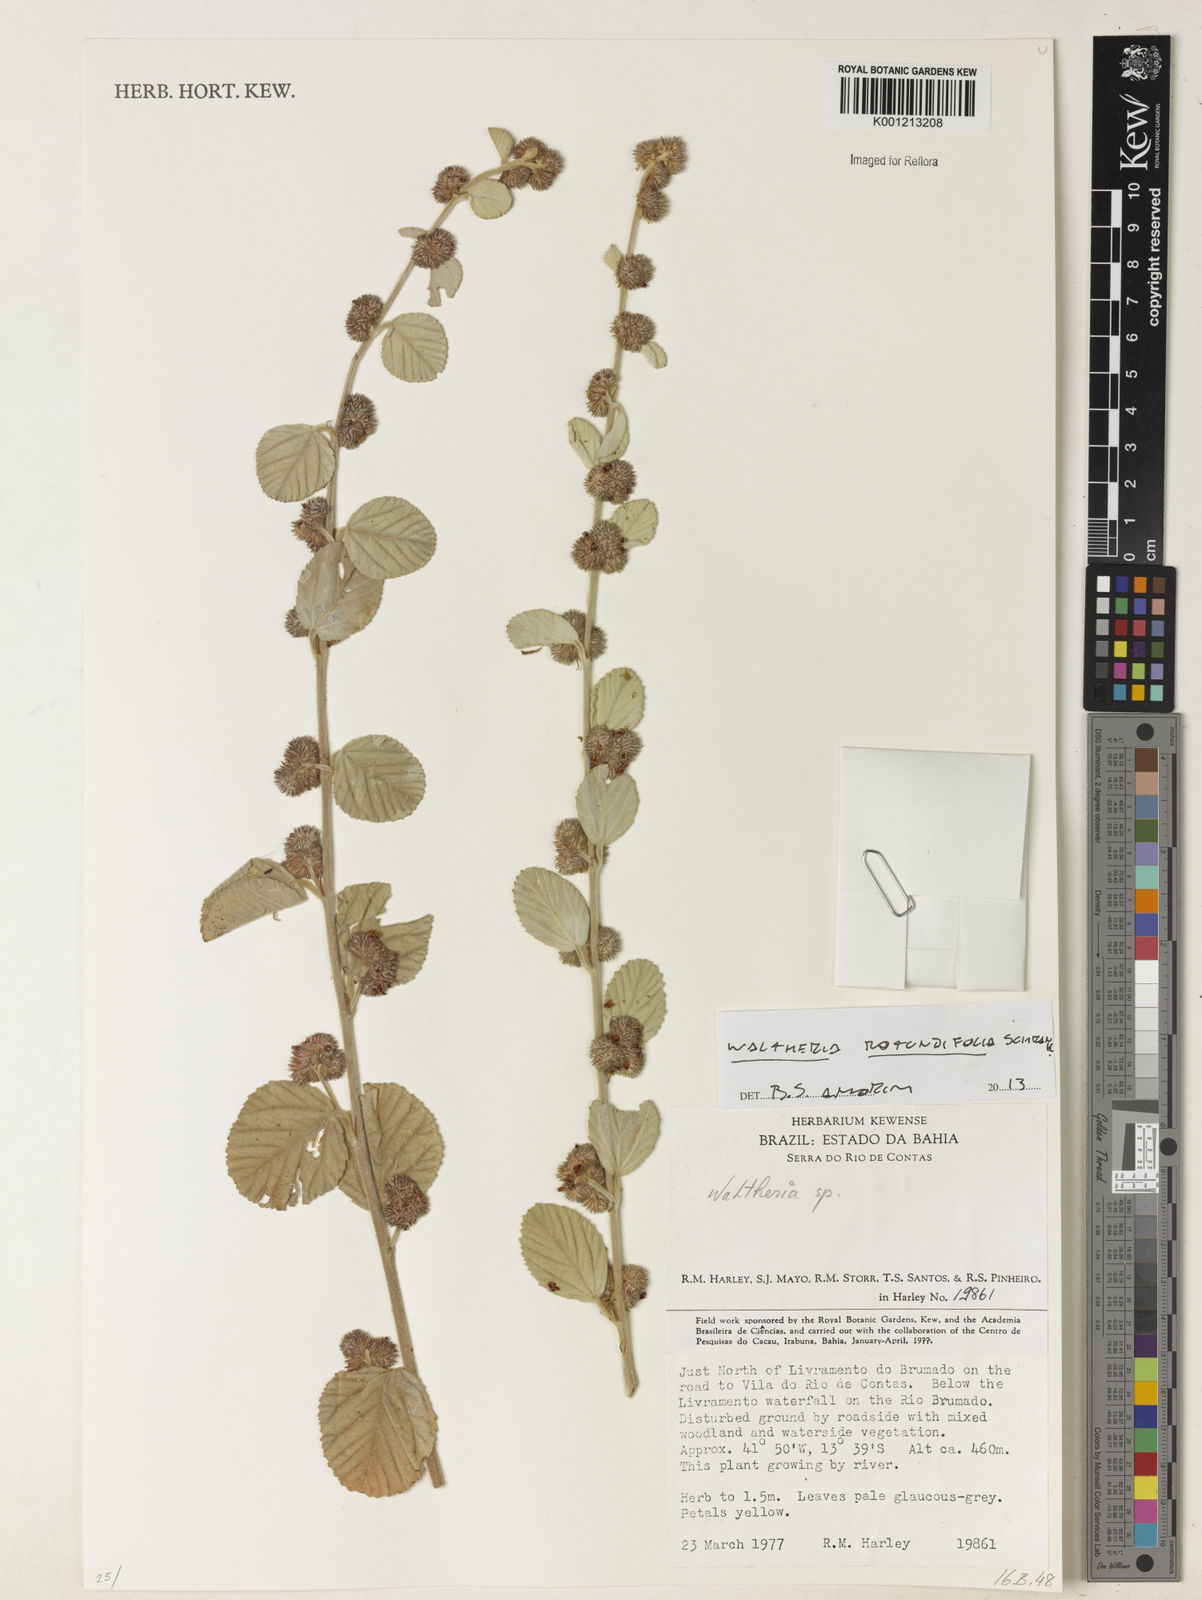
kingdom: Plantae
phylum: Tracheophyta
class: Magnoliopsida
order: Malvales
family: Malvaceae
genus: Waltheria
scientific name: Waltheria rotundifolia
